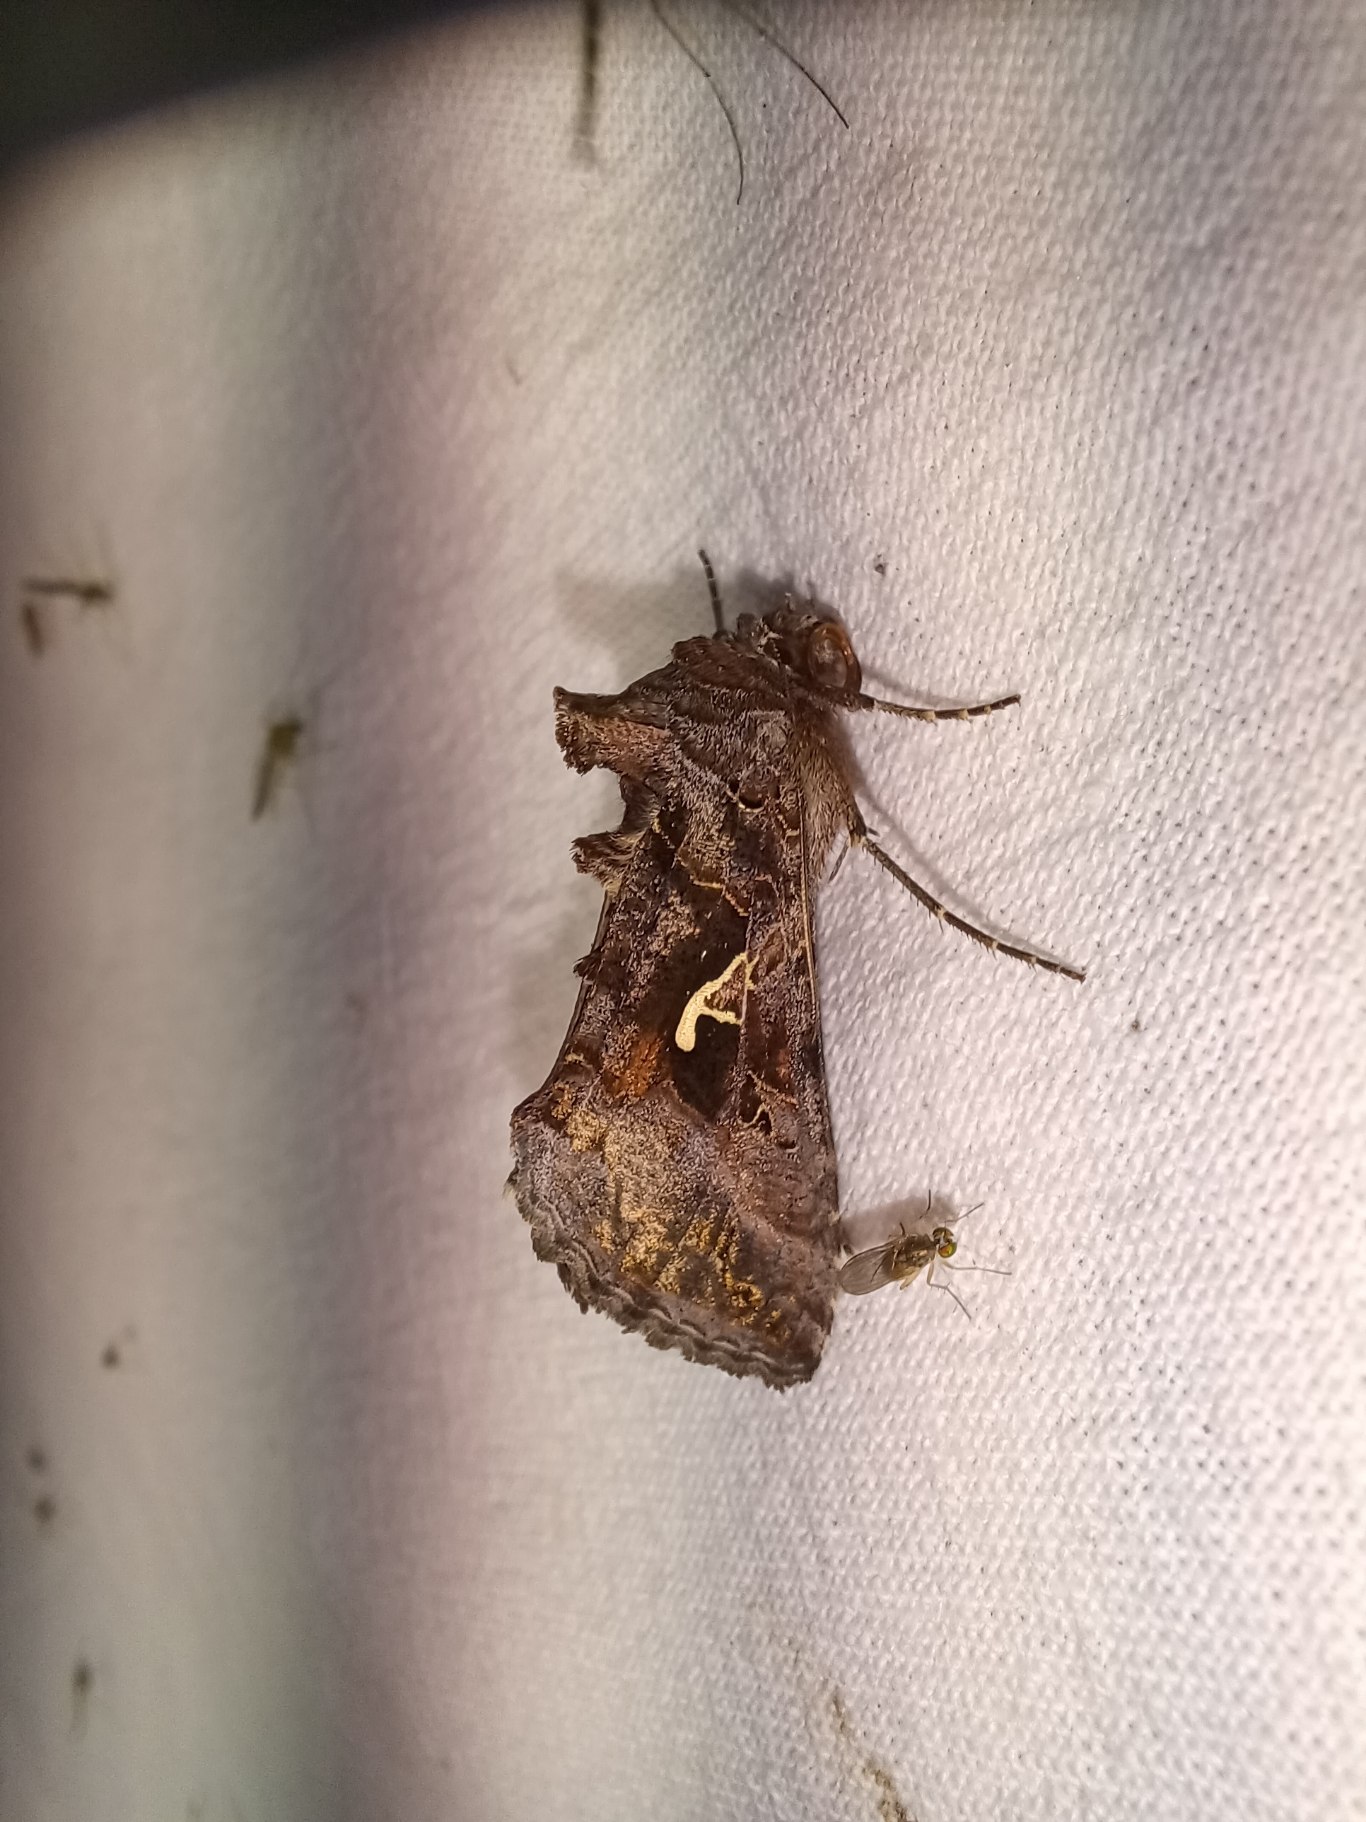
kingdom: Animalia
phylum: Arthropoda
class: Insecta
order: Lepidoptera
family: Noctuidae
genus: Autographa
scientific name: Autographa gamma
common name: Gammaugle
